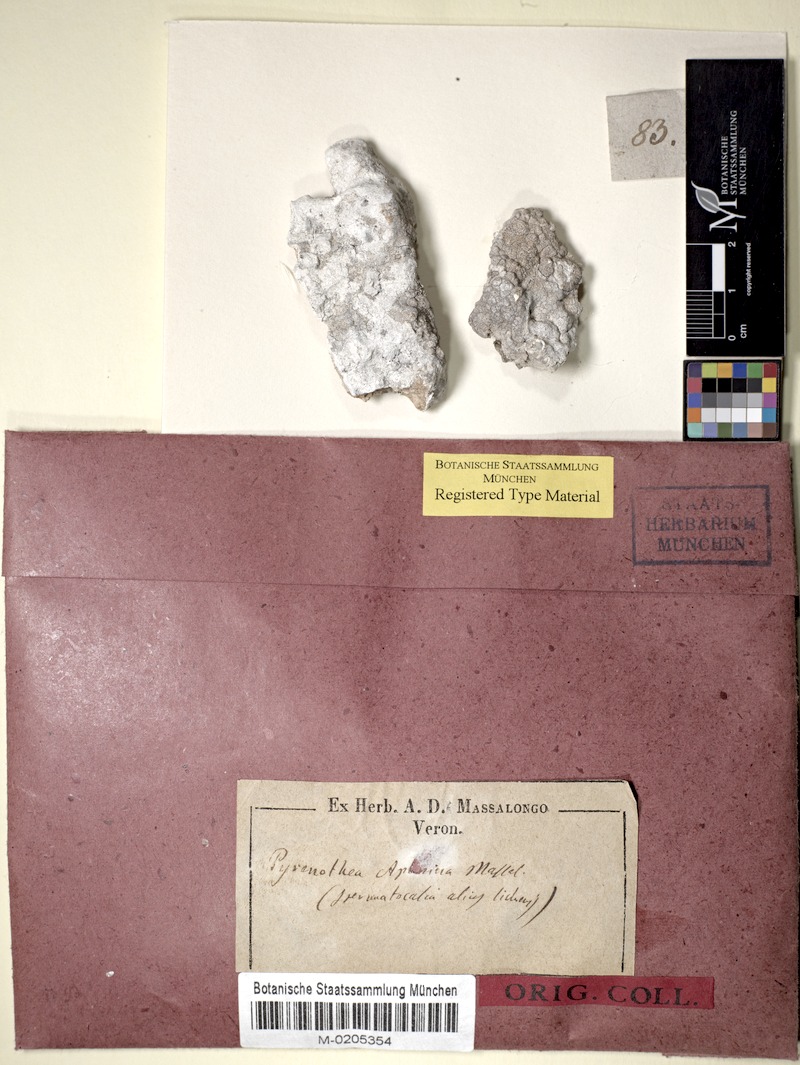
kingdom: Fungi
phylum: Ascomycota
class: Arthoniomycetes
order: Arthoniales
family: Roccellaceae
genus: Dirina
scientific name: Dirina massiliensis
